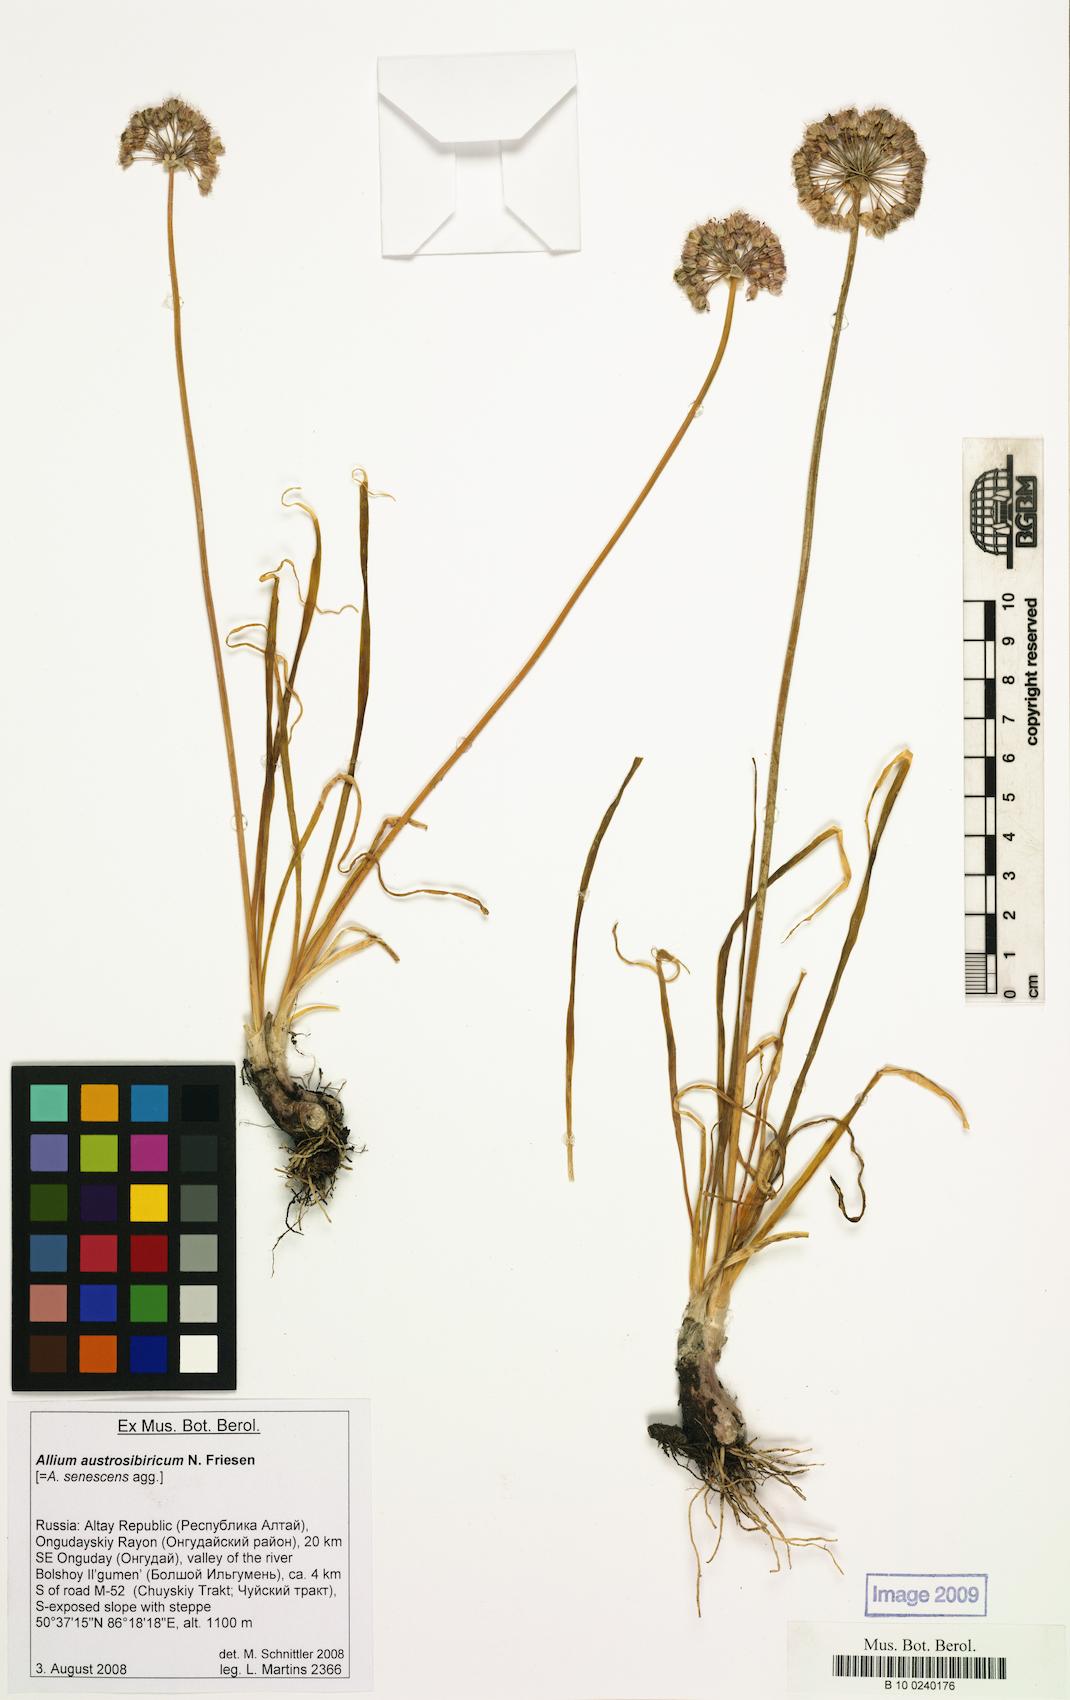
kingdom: Plantae
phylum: Tracheophyta
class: Liliopsida
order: Asparagales
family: Amaryllidaceae
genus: Allium
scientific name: Allium austrosibiricum
